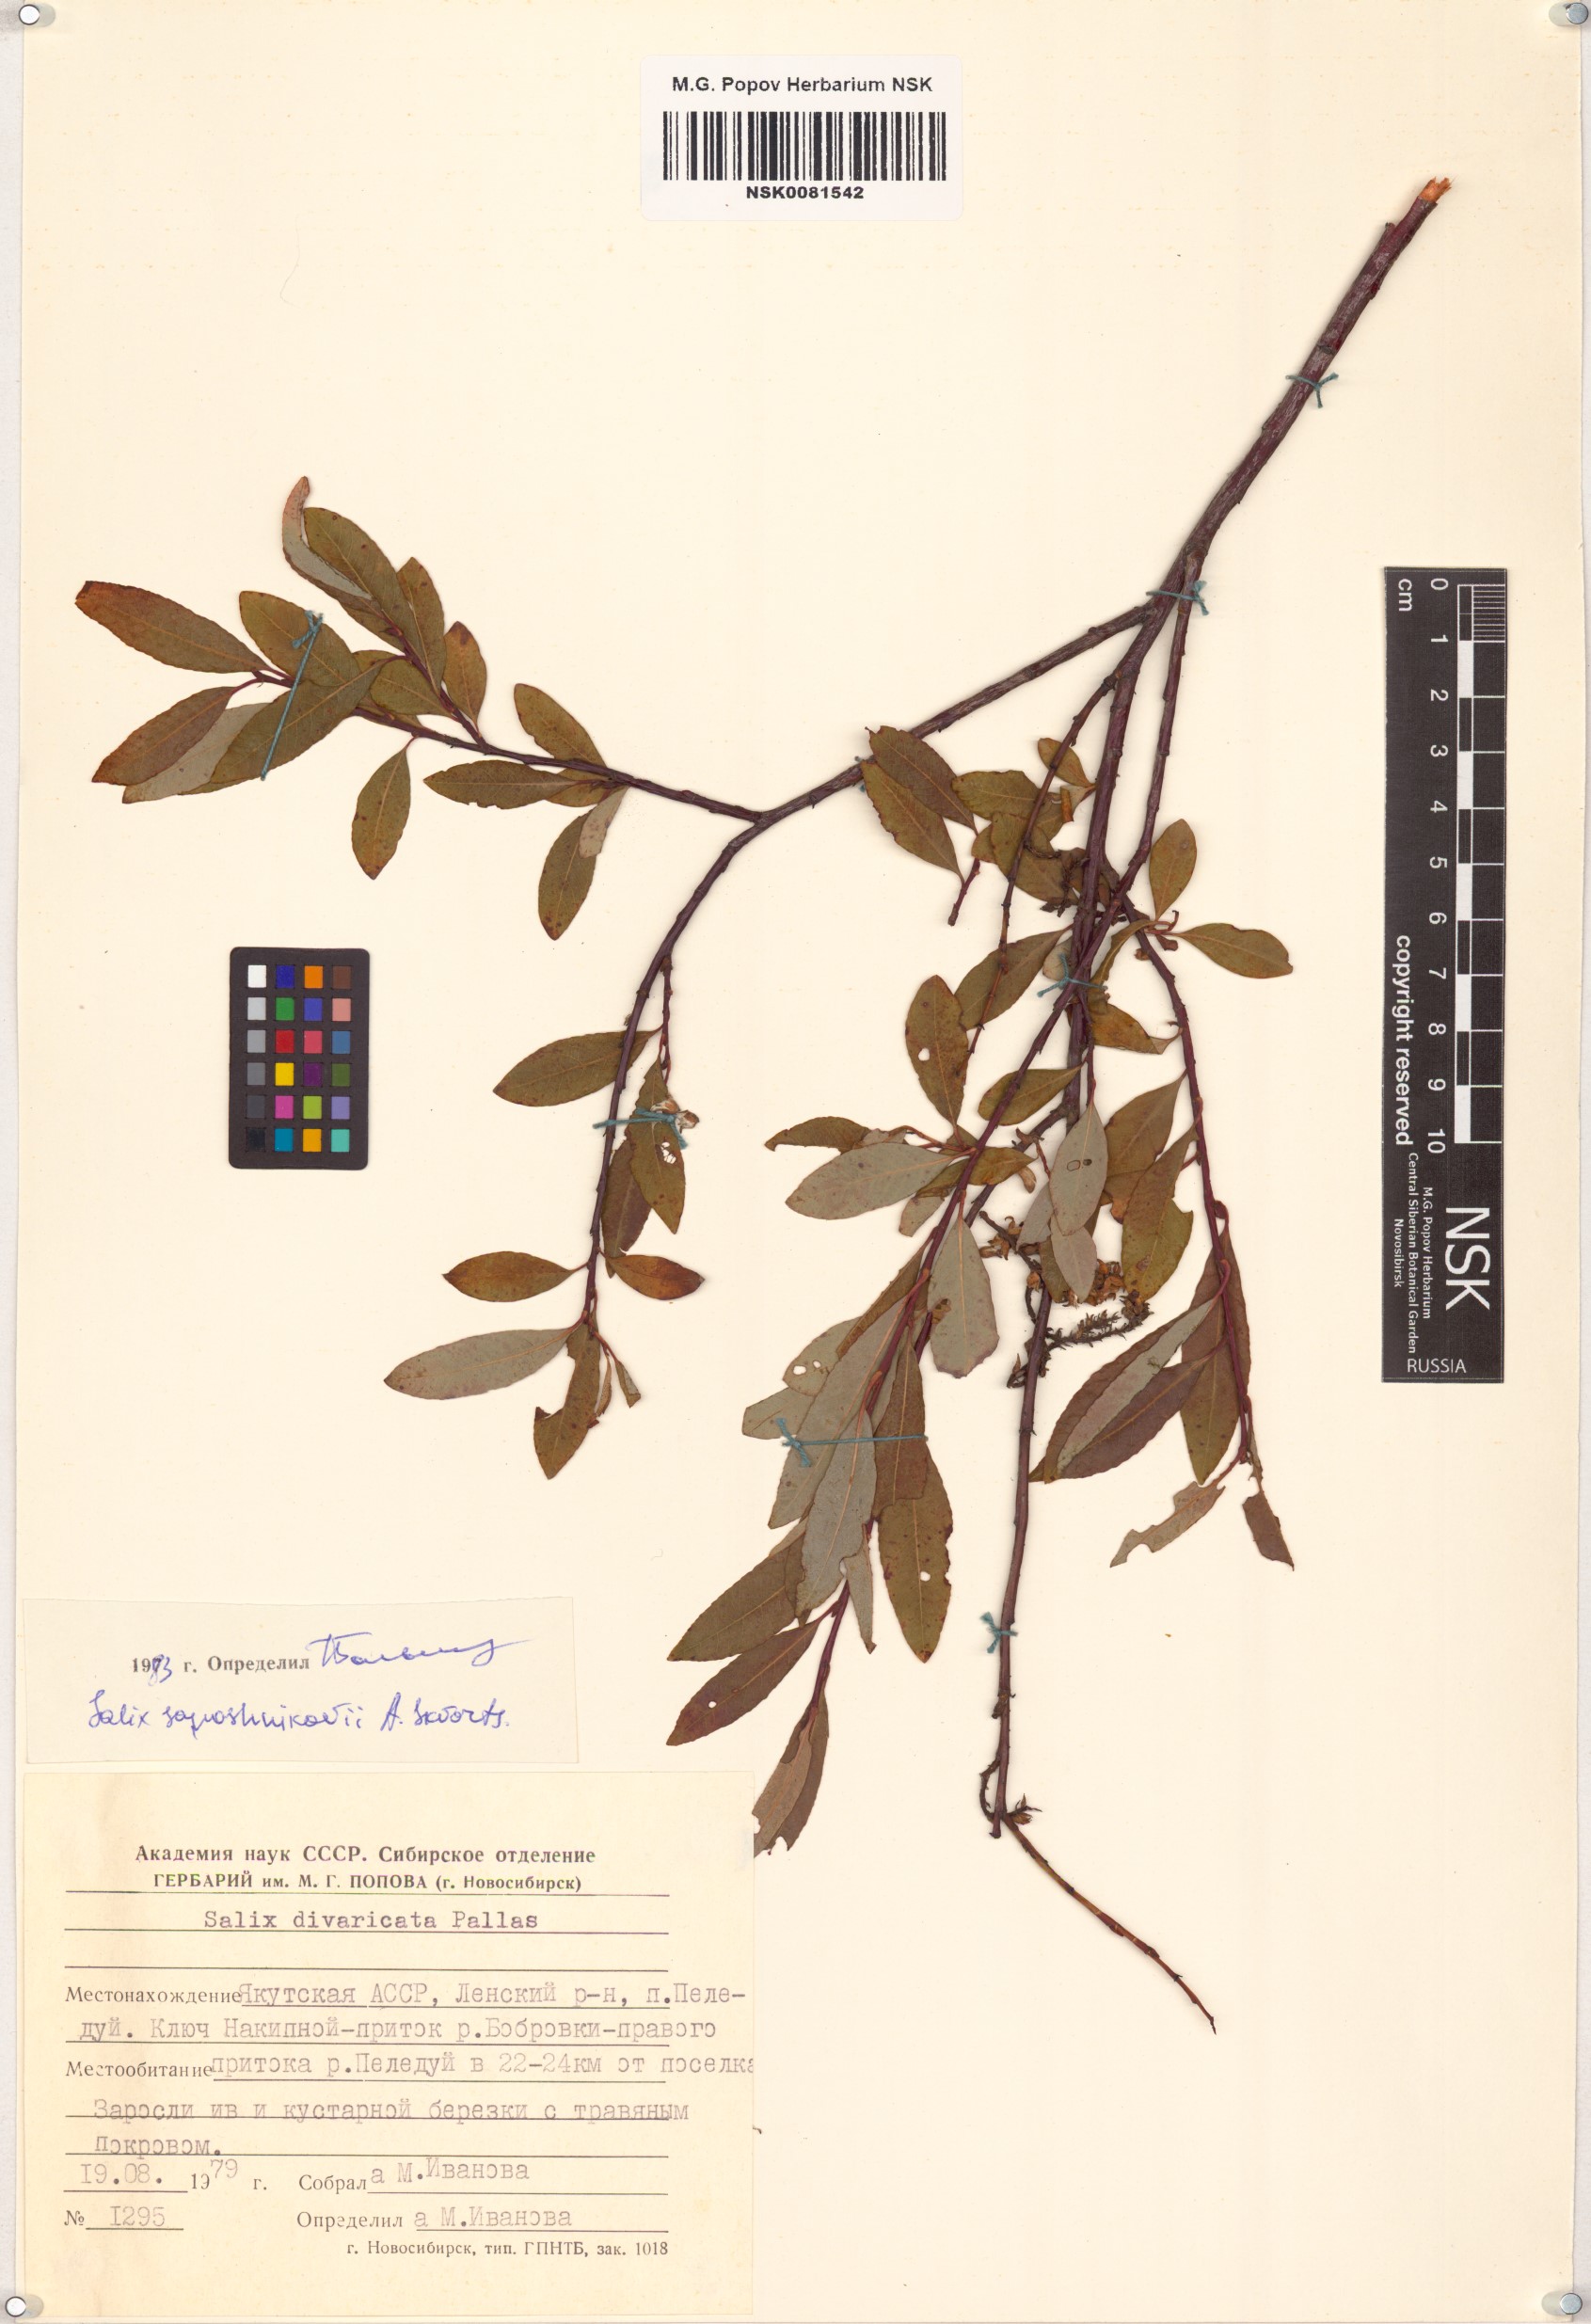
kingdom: Plantae
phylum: Tracheophyta
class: Magnoliopsida
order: Malpighiales
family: Salicaceae
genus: Salix
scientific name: Salix saposhnikovii
